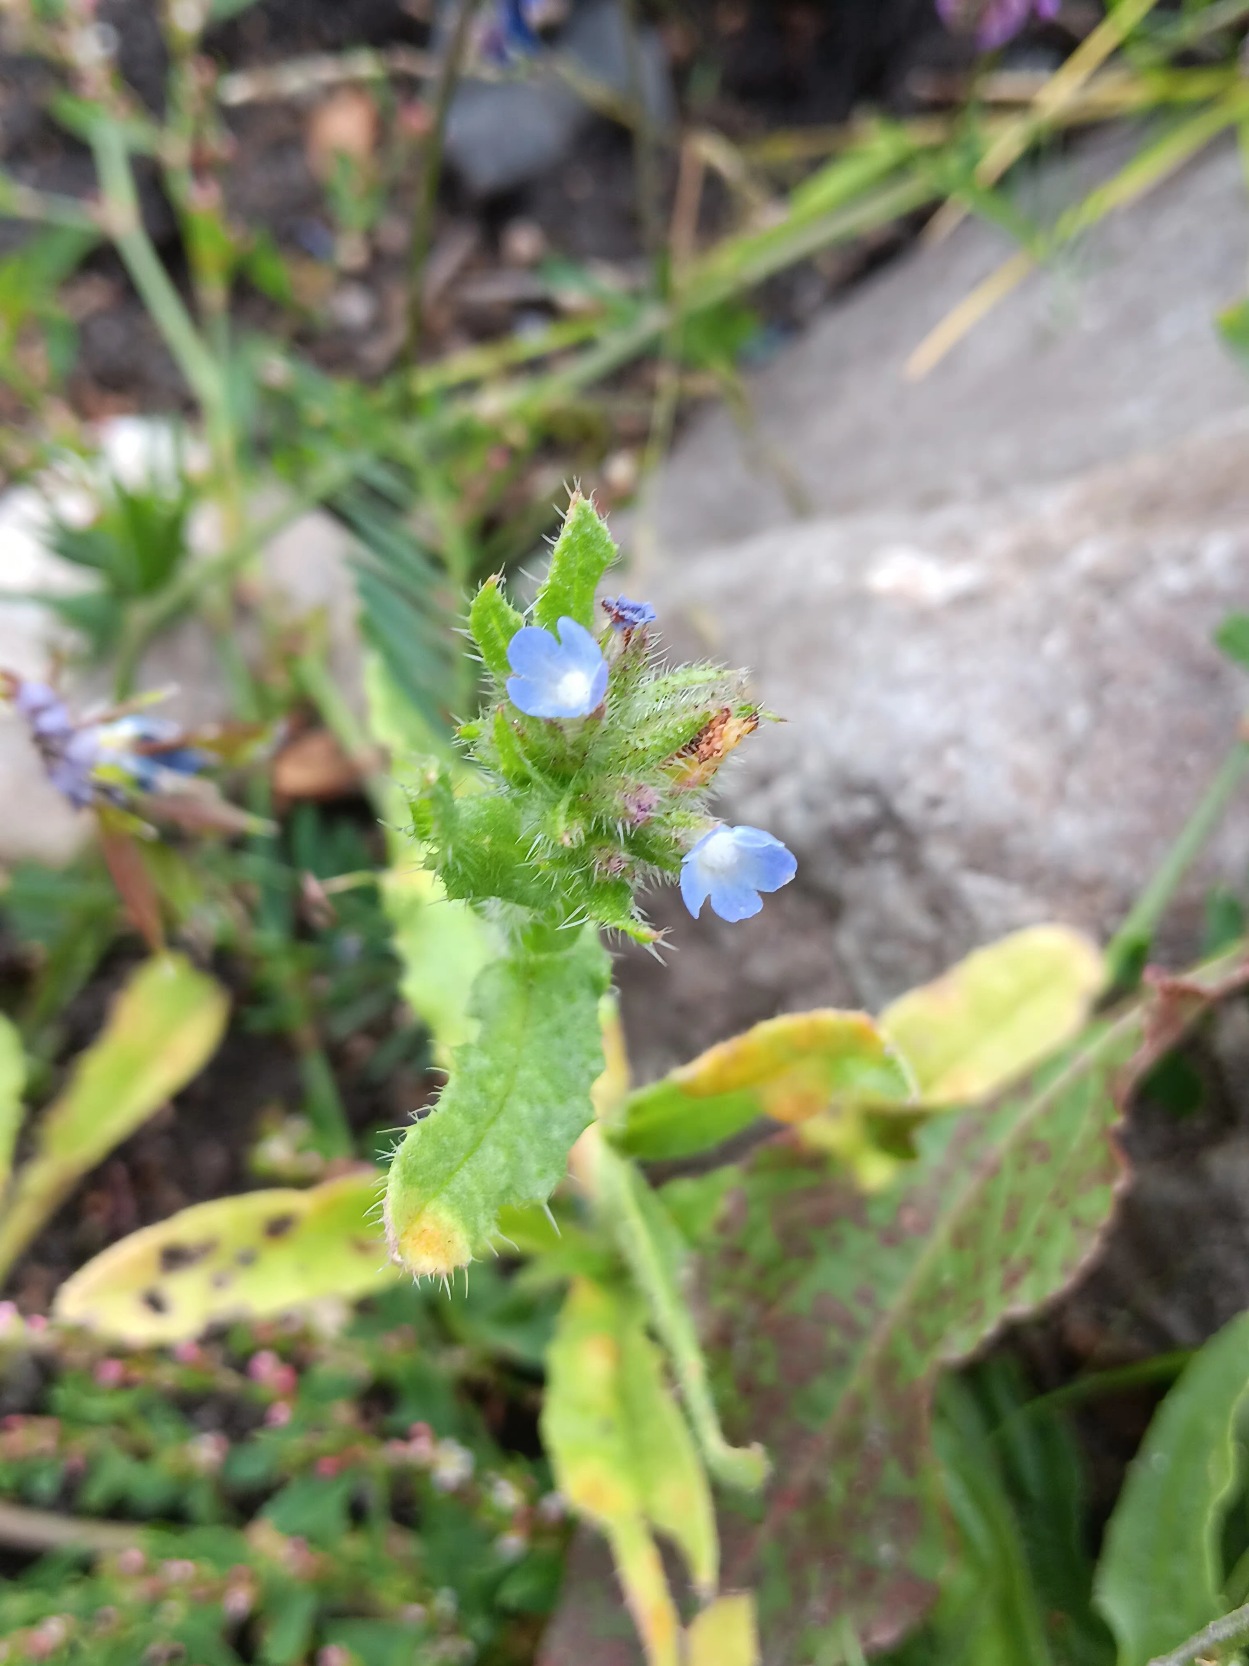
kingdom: Plantae
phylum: Tracheophyta
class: Magnoliopsida
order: Boraginales
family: Boraginaceae
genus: Lycopsis
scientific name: Lycopsis arvensis
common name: Krumhals
